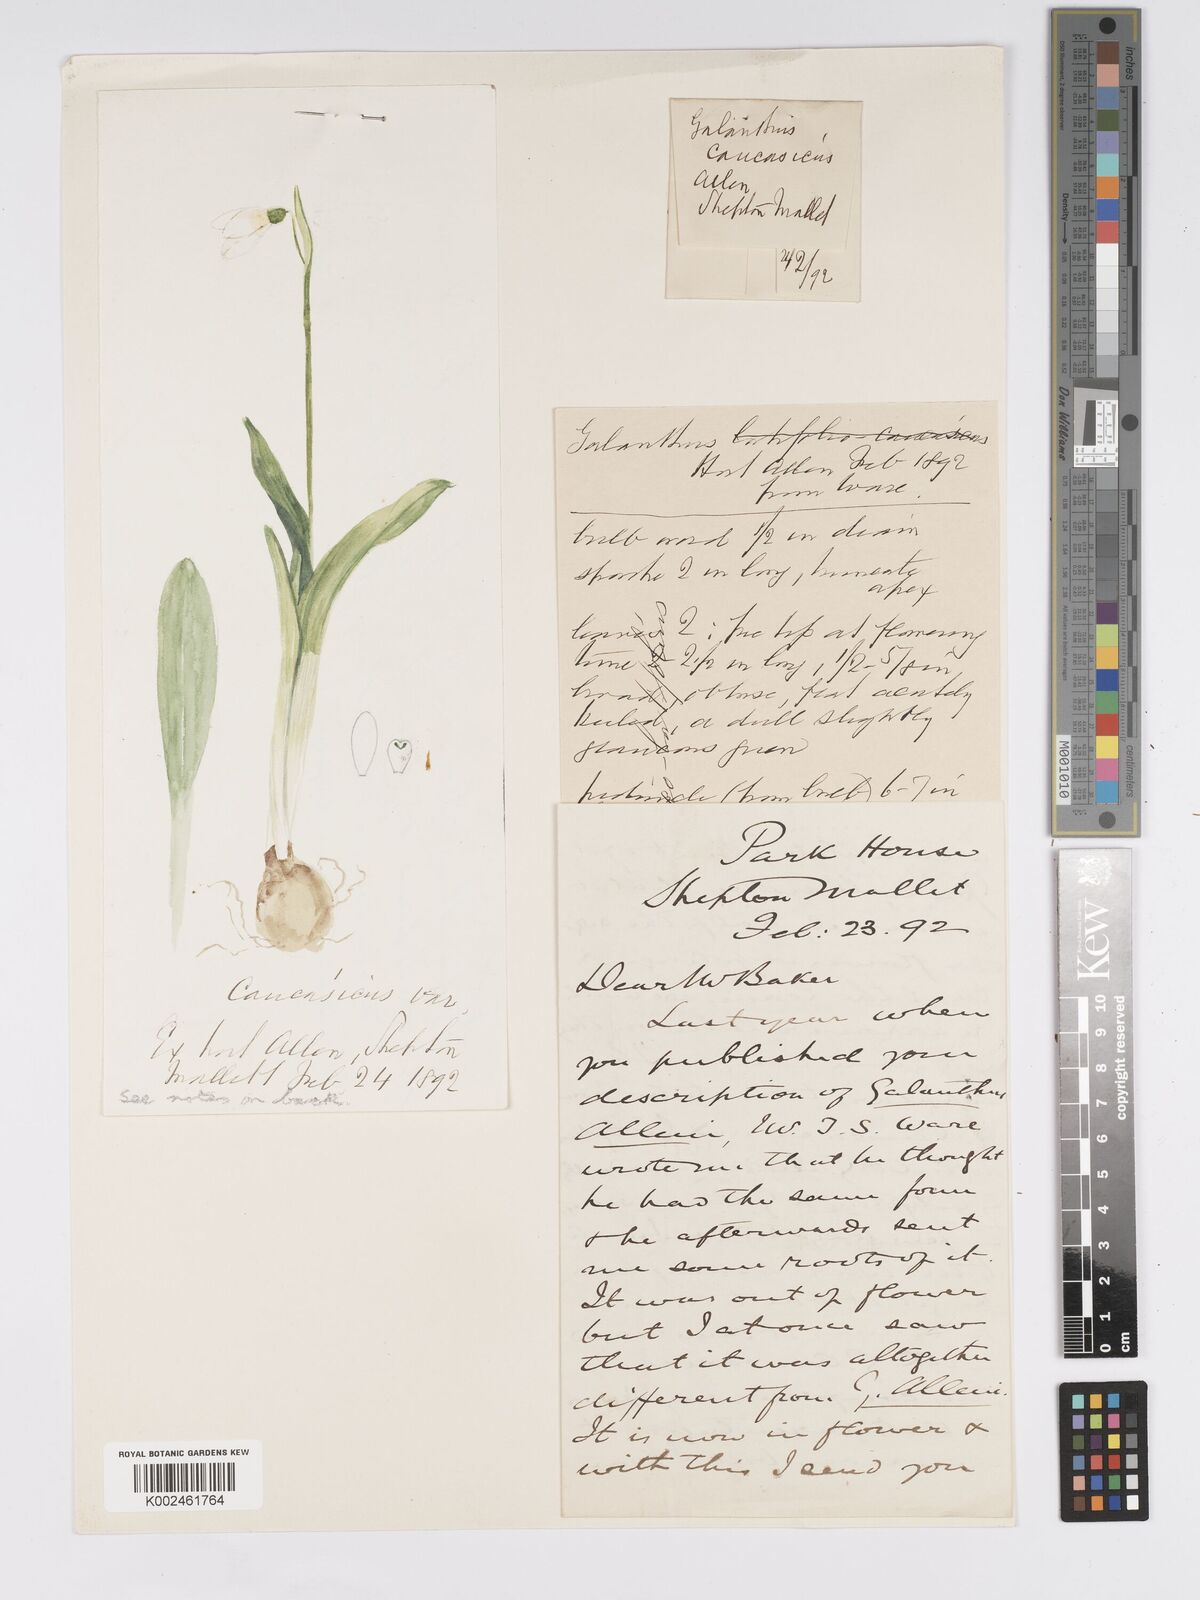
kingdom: Plantae
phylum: Tracheophyta
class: Liliopsida
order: Asparagales
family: Amaryllidaceae
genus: Galanthus
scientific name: Galanthus allenii
